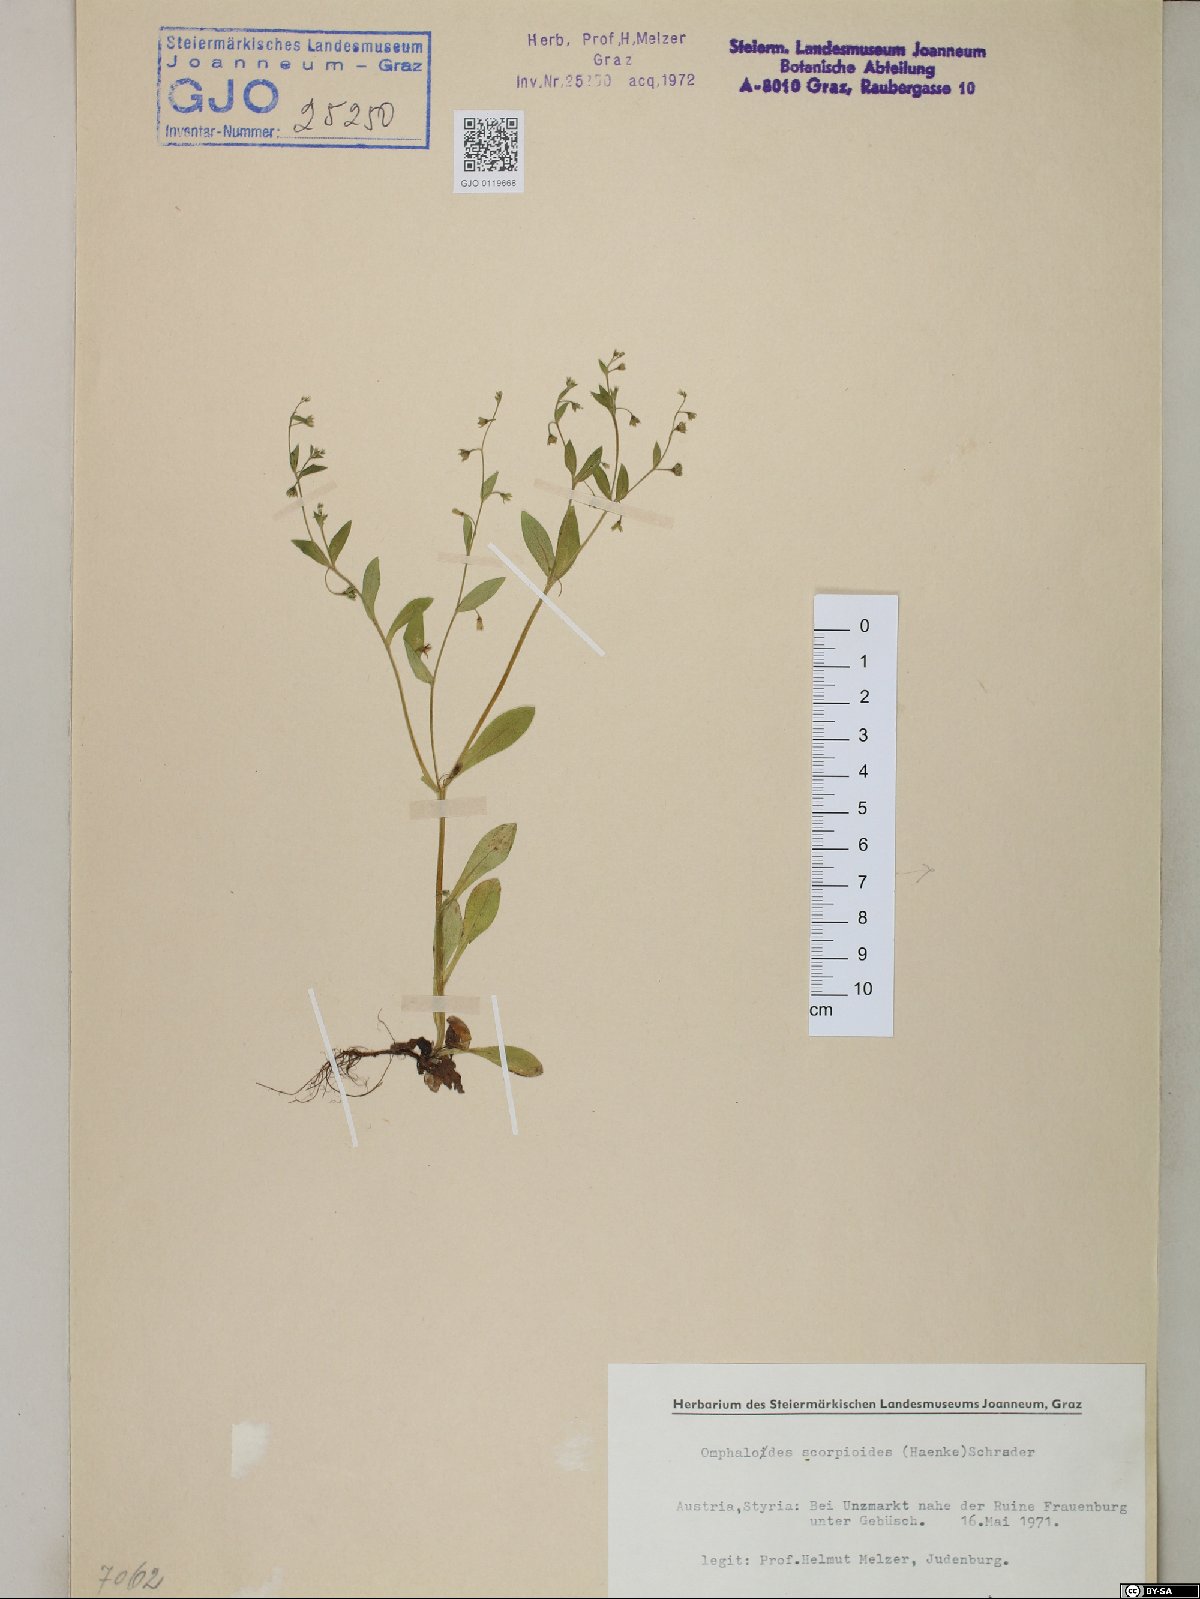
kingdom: Plantae
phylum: Tracheophyta
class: Magnoliopsida
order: Boraginales
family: Boraginaceae
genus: Memoremea
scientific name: Memoremea scorpioides
